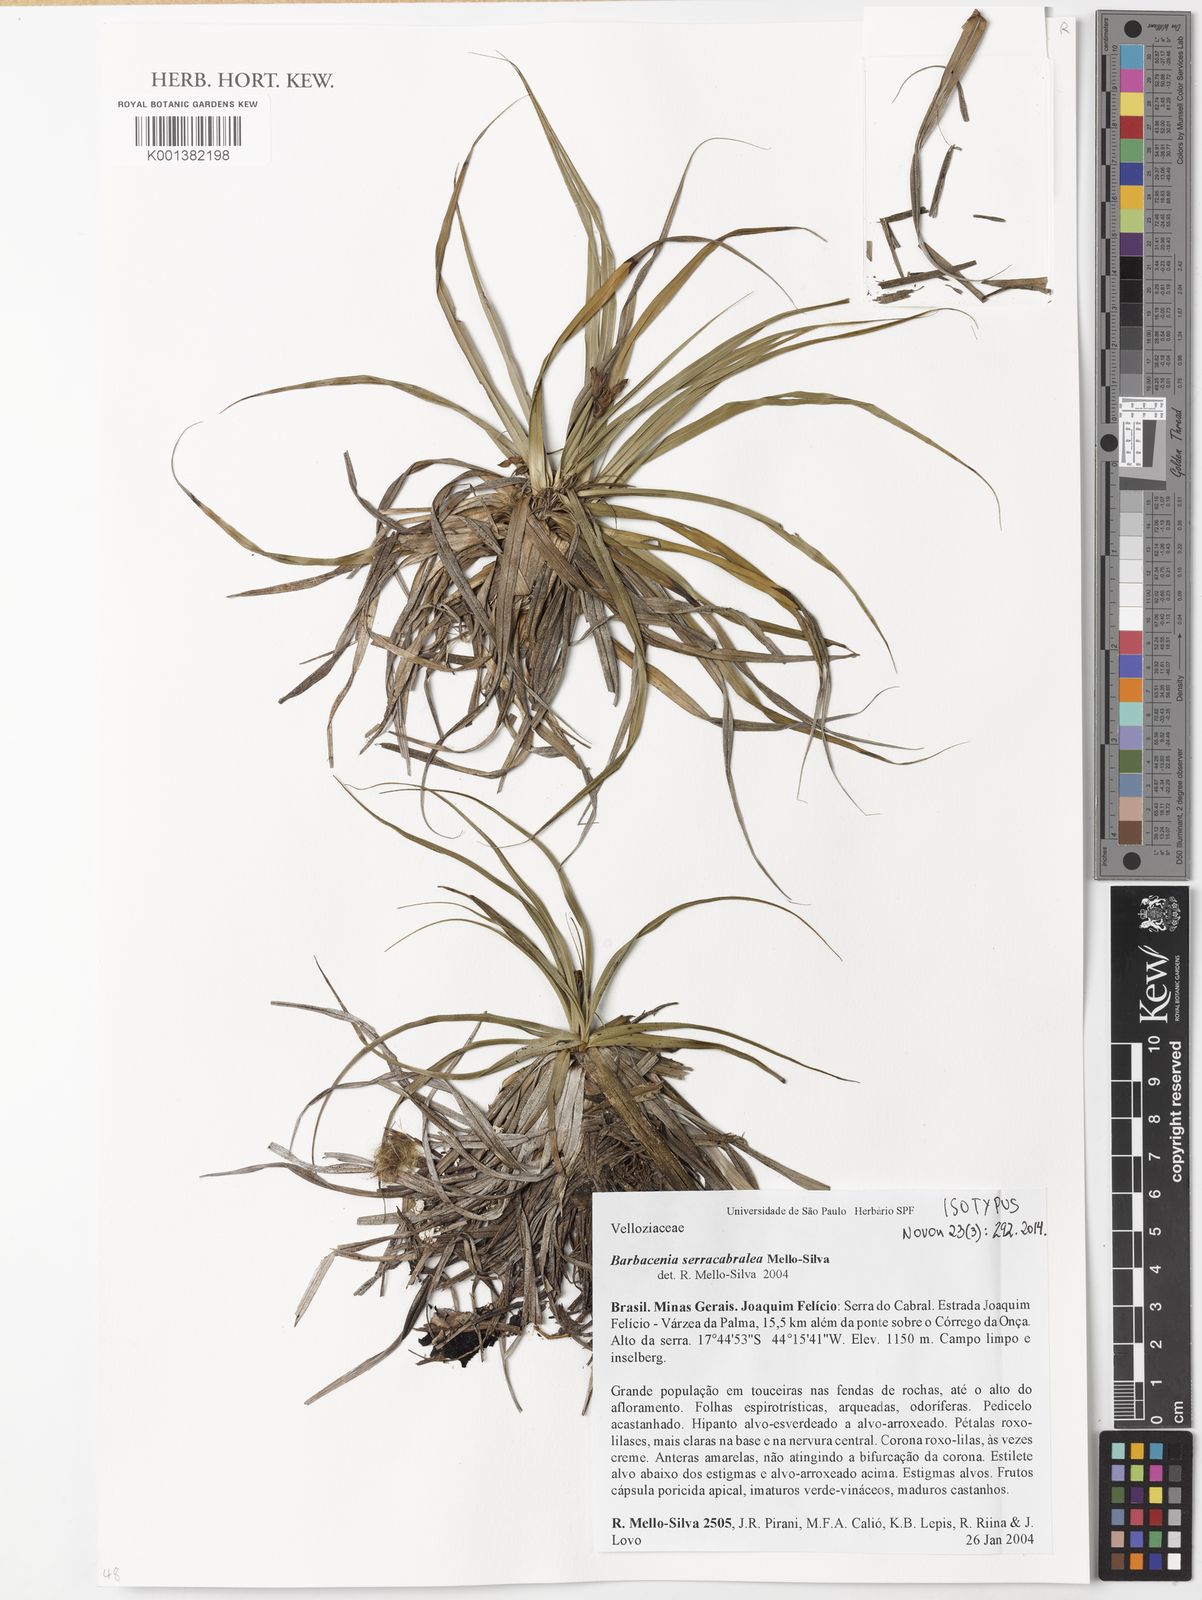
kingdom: Plantae
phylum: Tracheophyta
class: Liliopsida
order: Pandanales
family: Velloziaceae
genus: Barbacenia
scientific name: Barbacenia serracabralea
